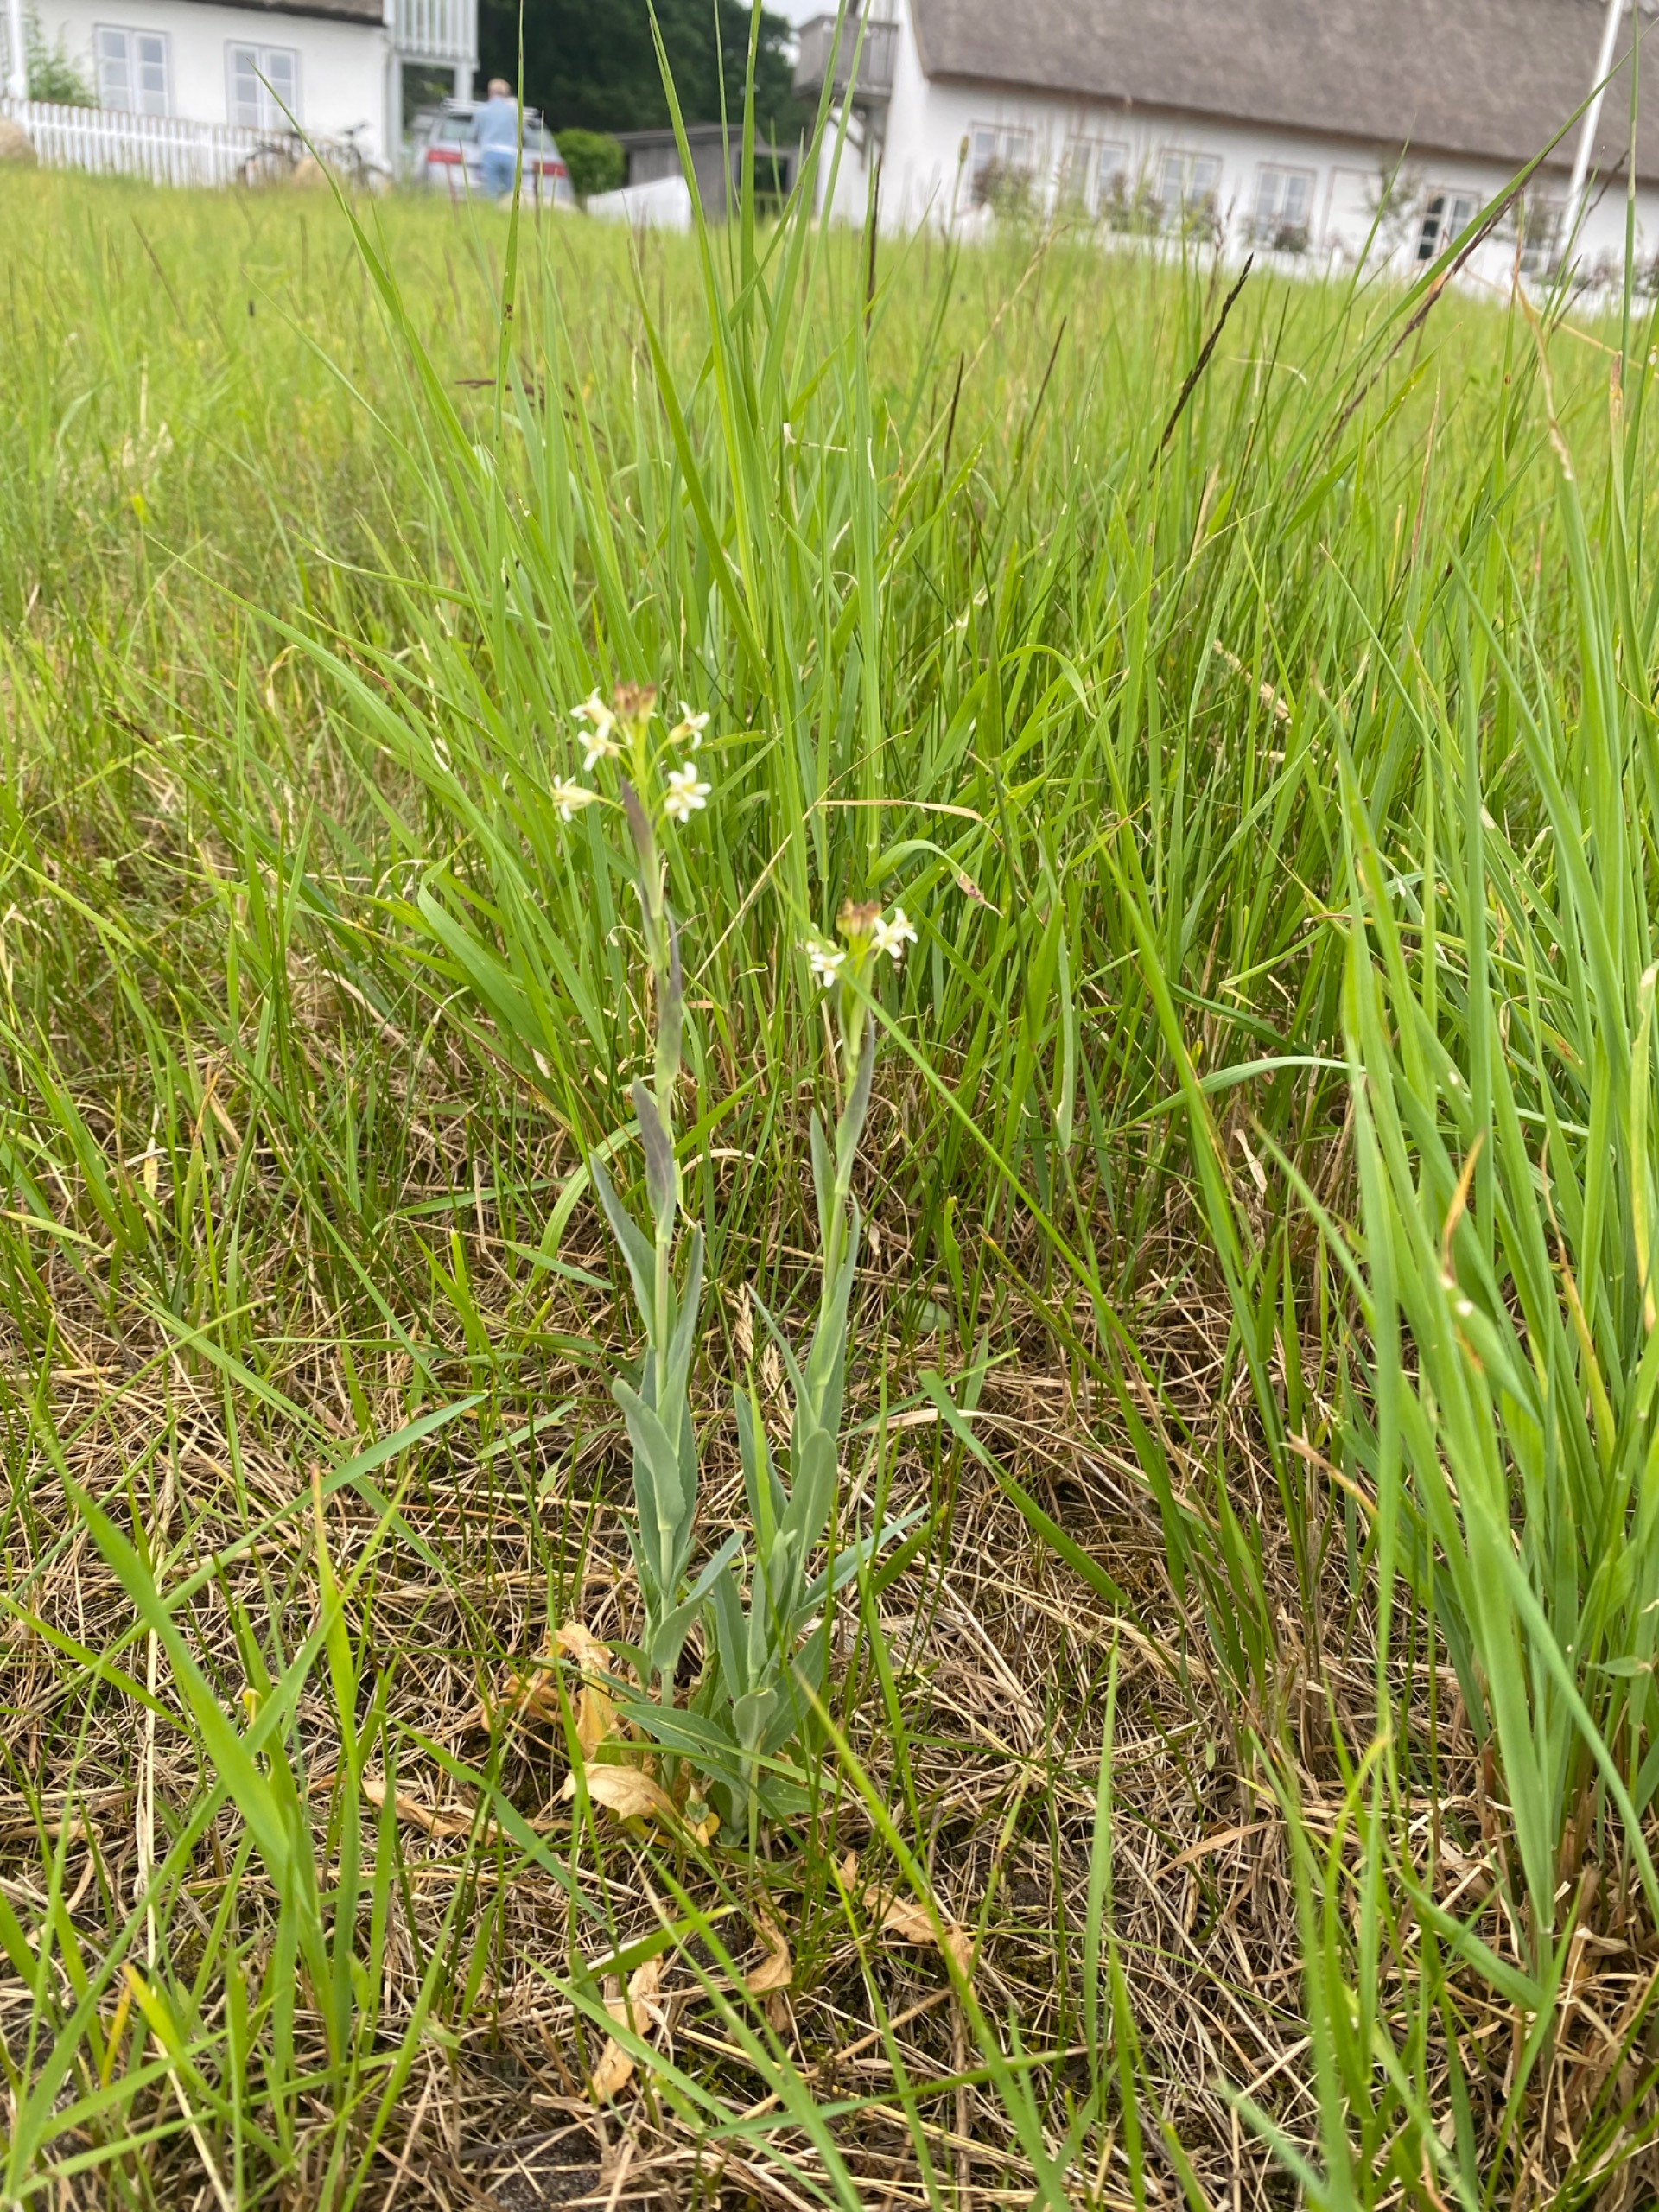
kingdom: Plantae
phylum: Tracheophyta
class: Magnoliopsida
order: Brassicales
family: Brassicaceae
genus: Turritis
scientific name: Turritis glabra
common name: Tårnurt
